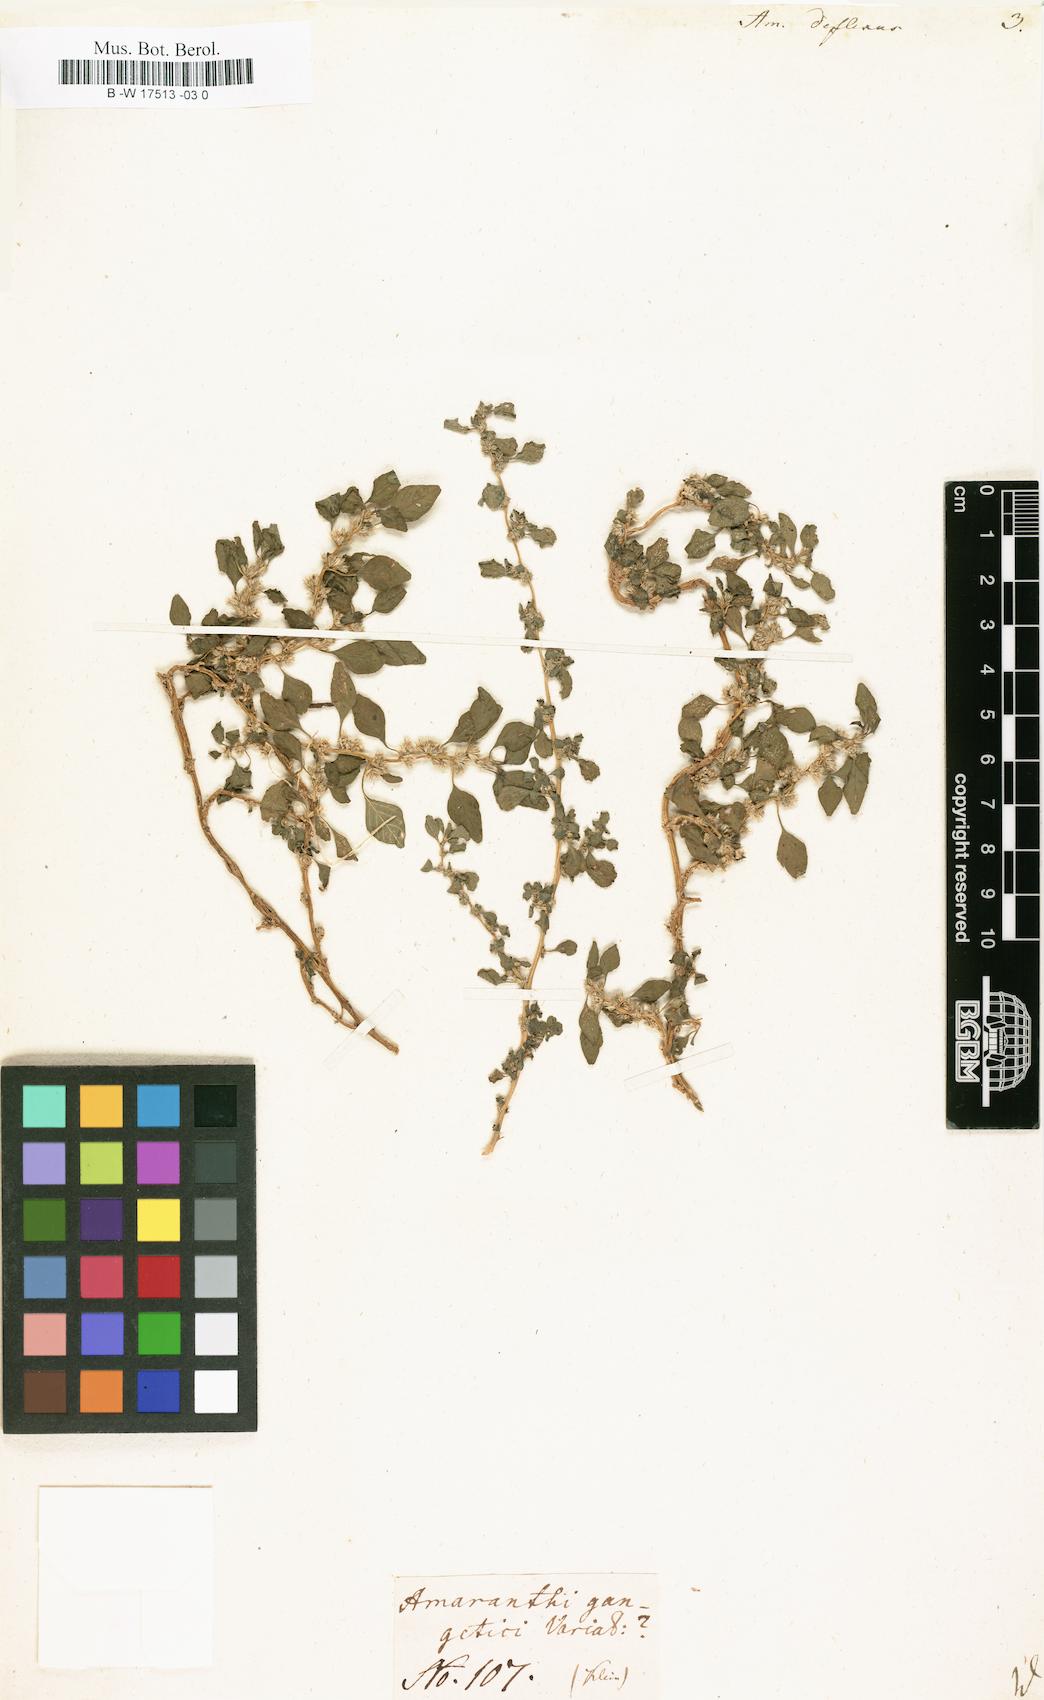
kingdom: Plantae
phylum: Tracheophyta
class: Magnoliopsida
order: Caryophyllales
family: Amaranthaceae
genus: Amaranthus
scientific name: Amaranthus deflexus
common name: Perennial pigweed
